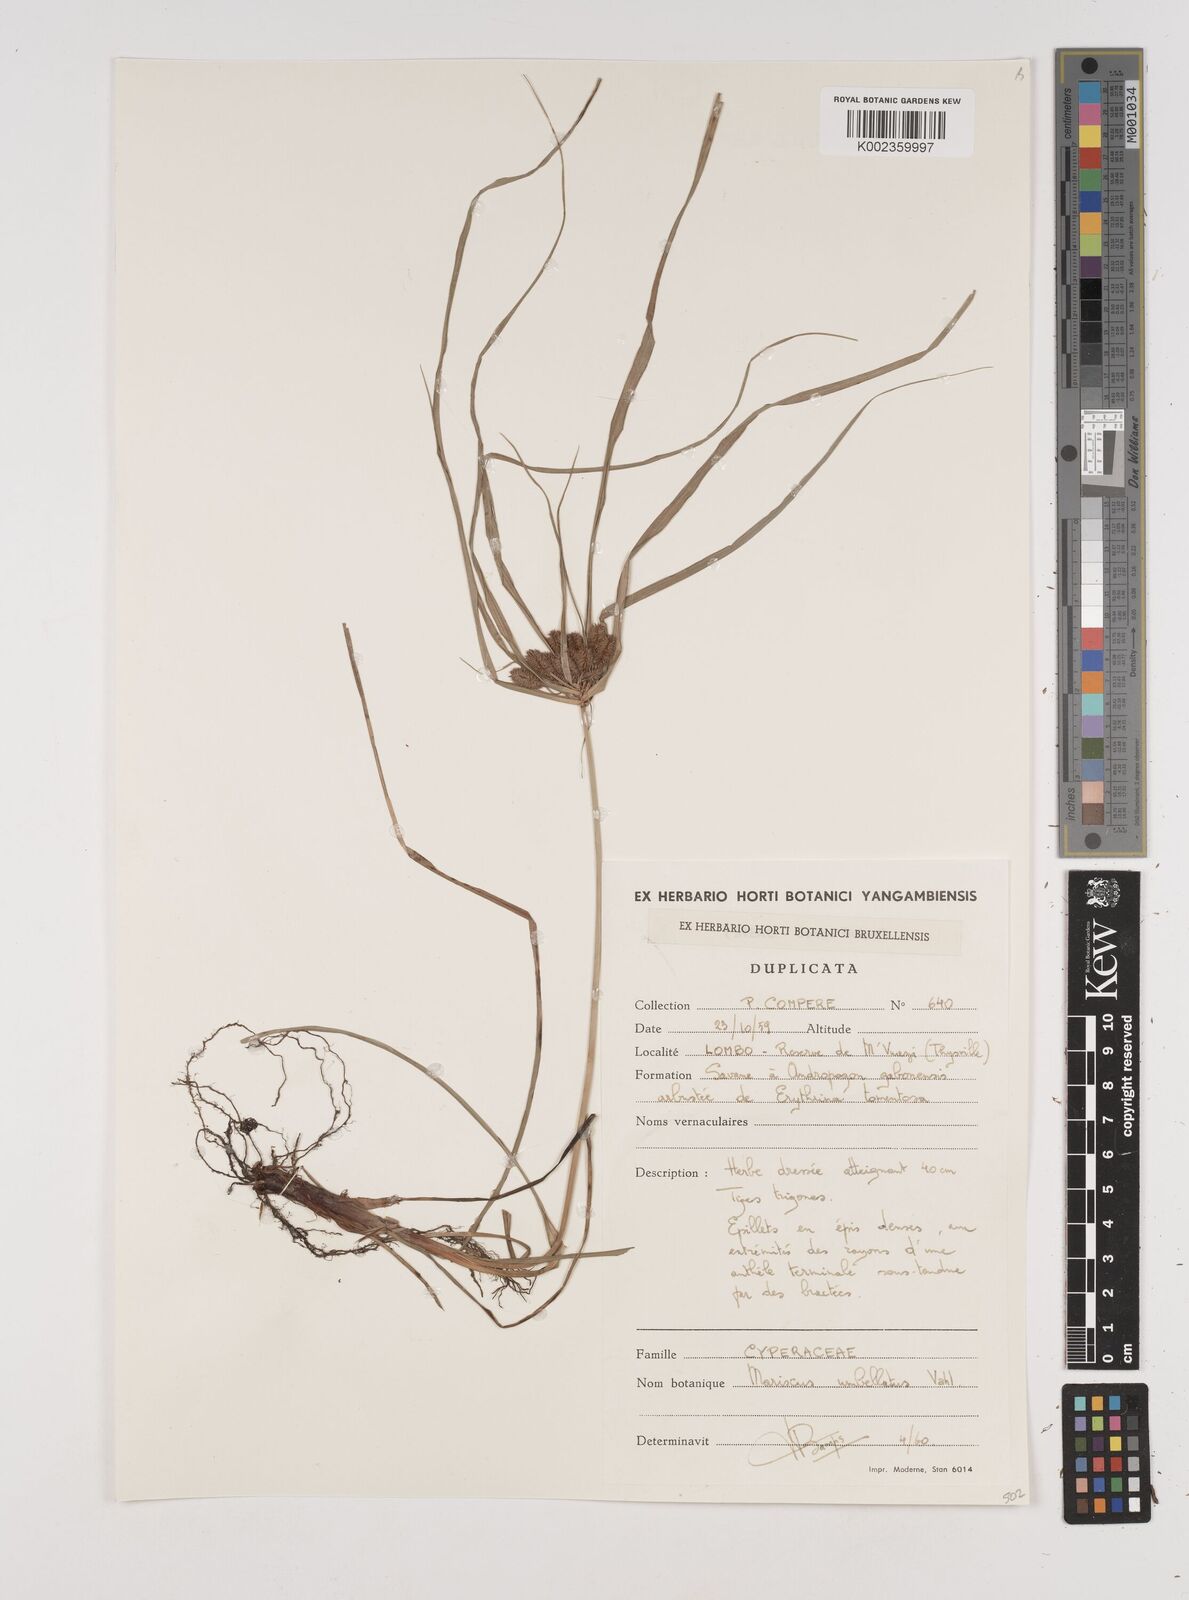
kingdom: Plantae
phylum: Tracheophyta
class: Liliopsida
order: Poales
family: Cyperaceae
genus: Cyperus
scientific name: Cyperus cyperoides
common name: Pacific island flat sedge
